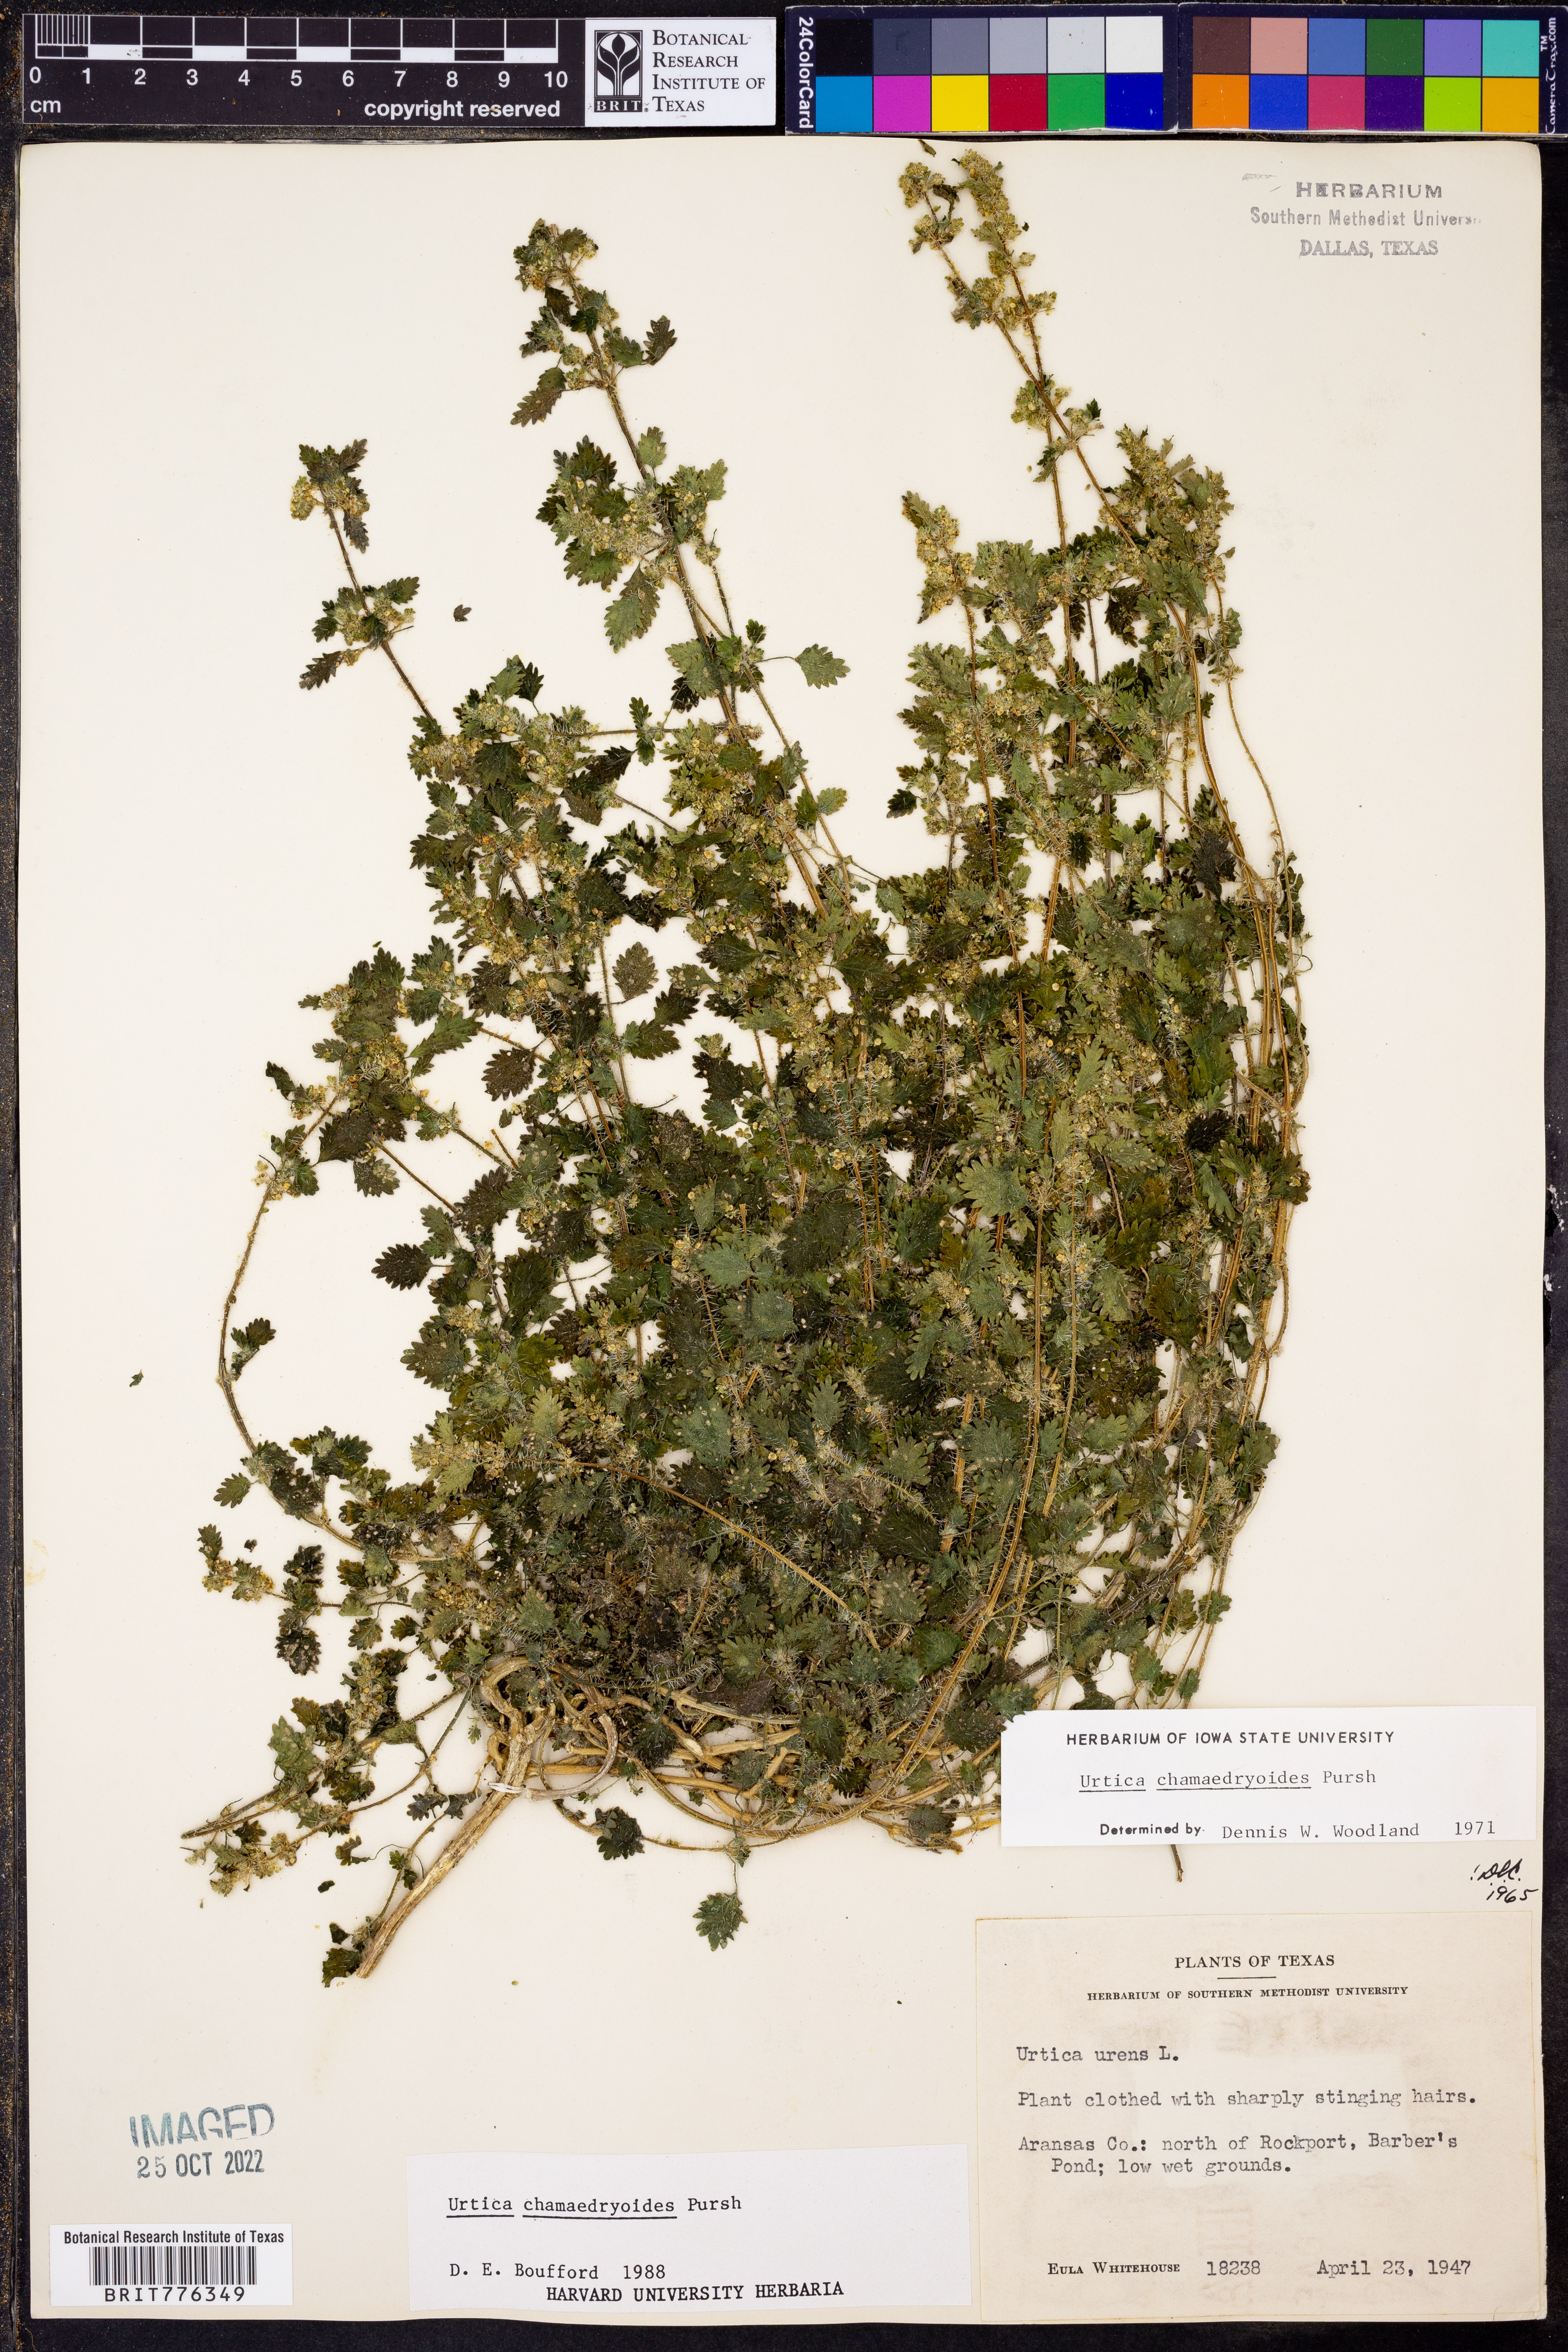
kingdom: Plantae
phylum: Tracheophyta
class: Magnoliopsida
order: Rosales
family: Urticaceae
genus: Urtica
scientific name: Urtica chamaedryoides
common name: Heart-leaf nettle
